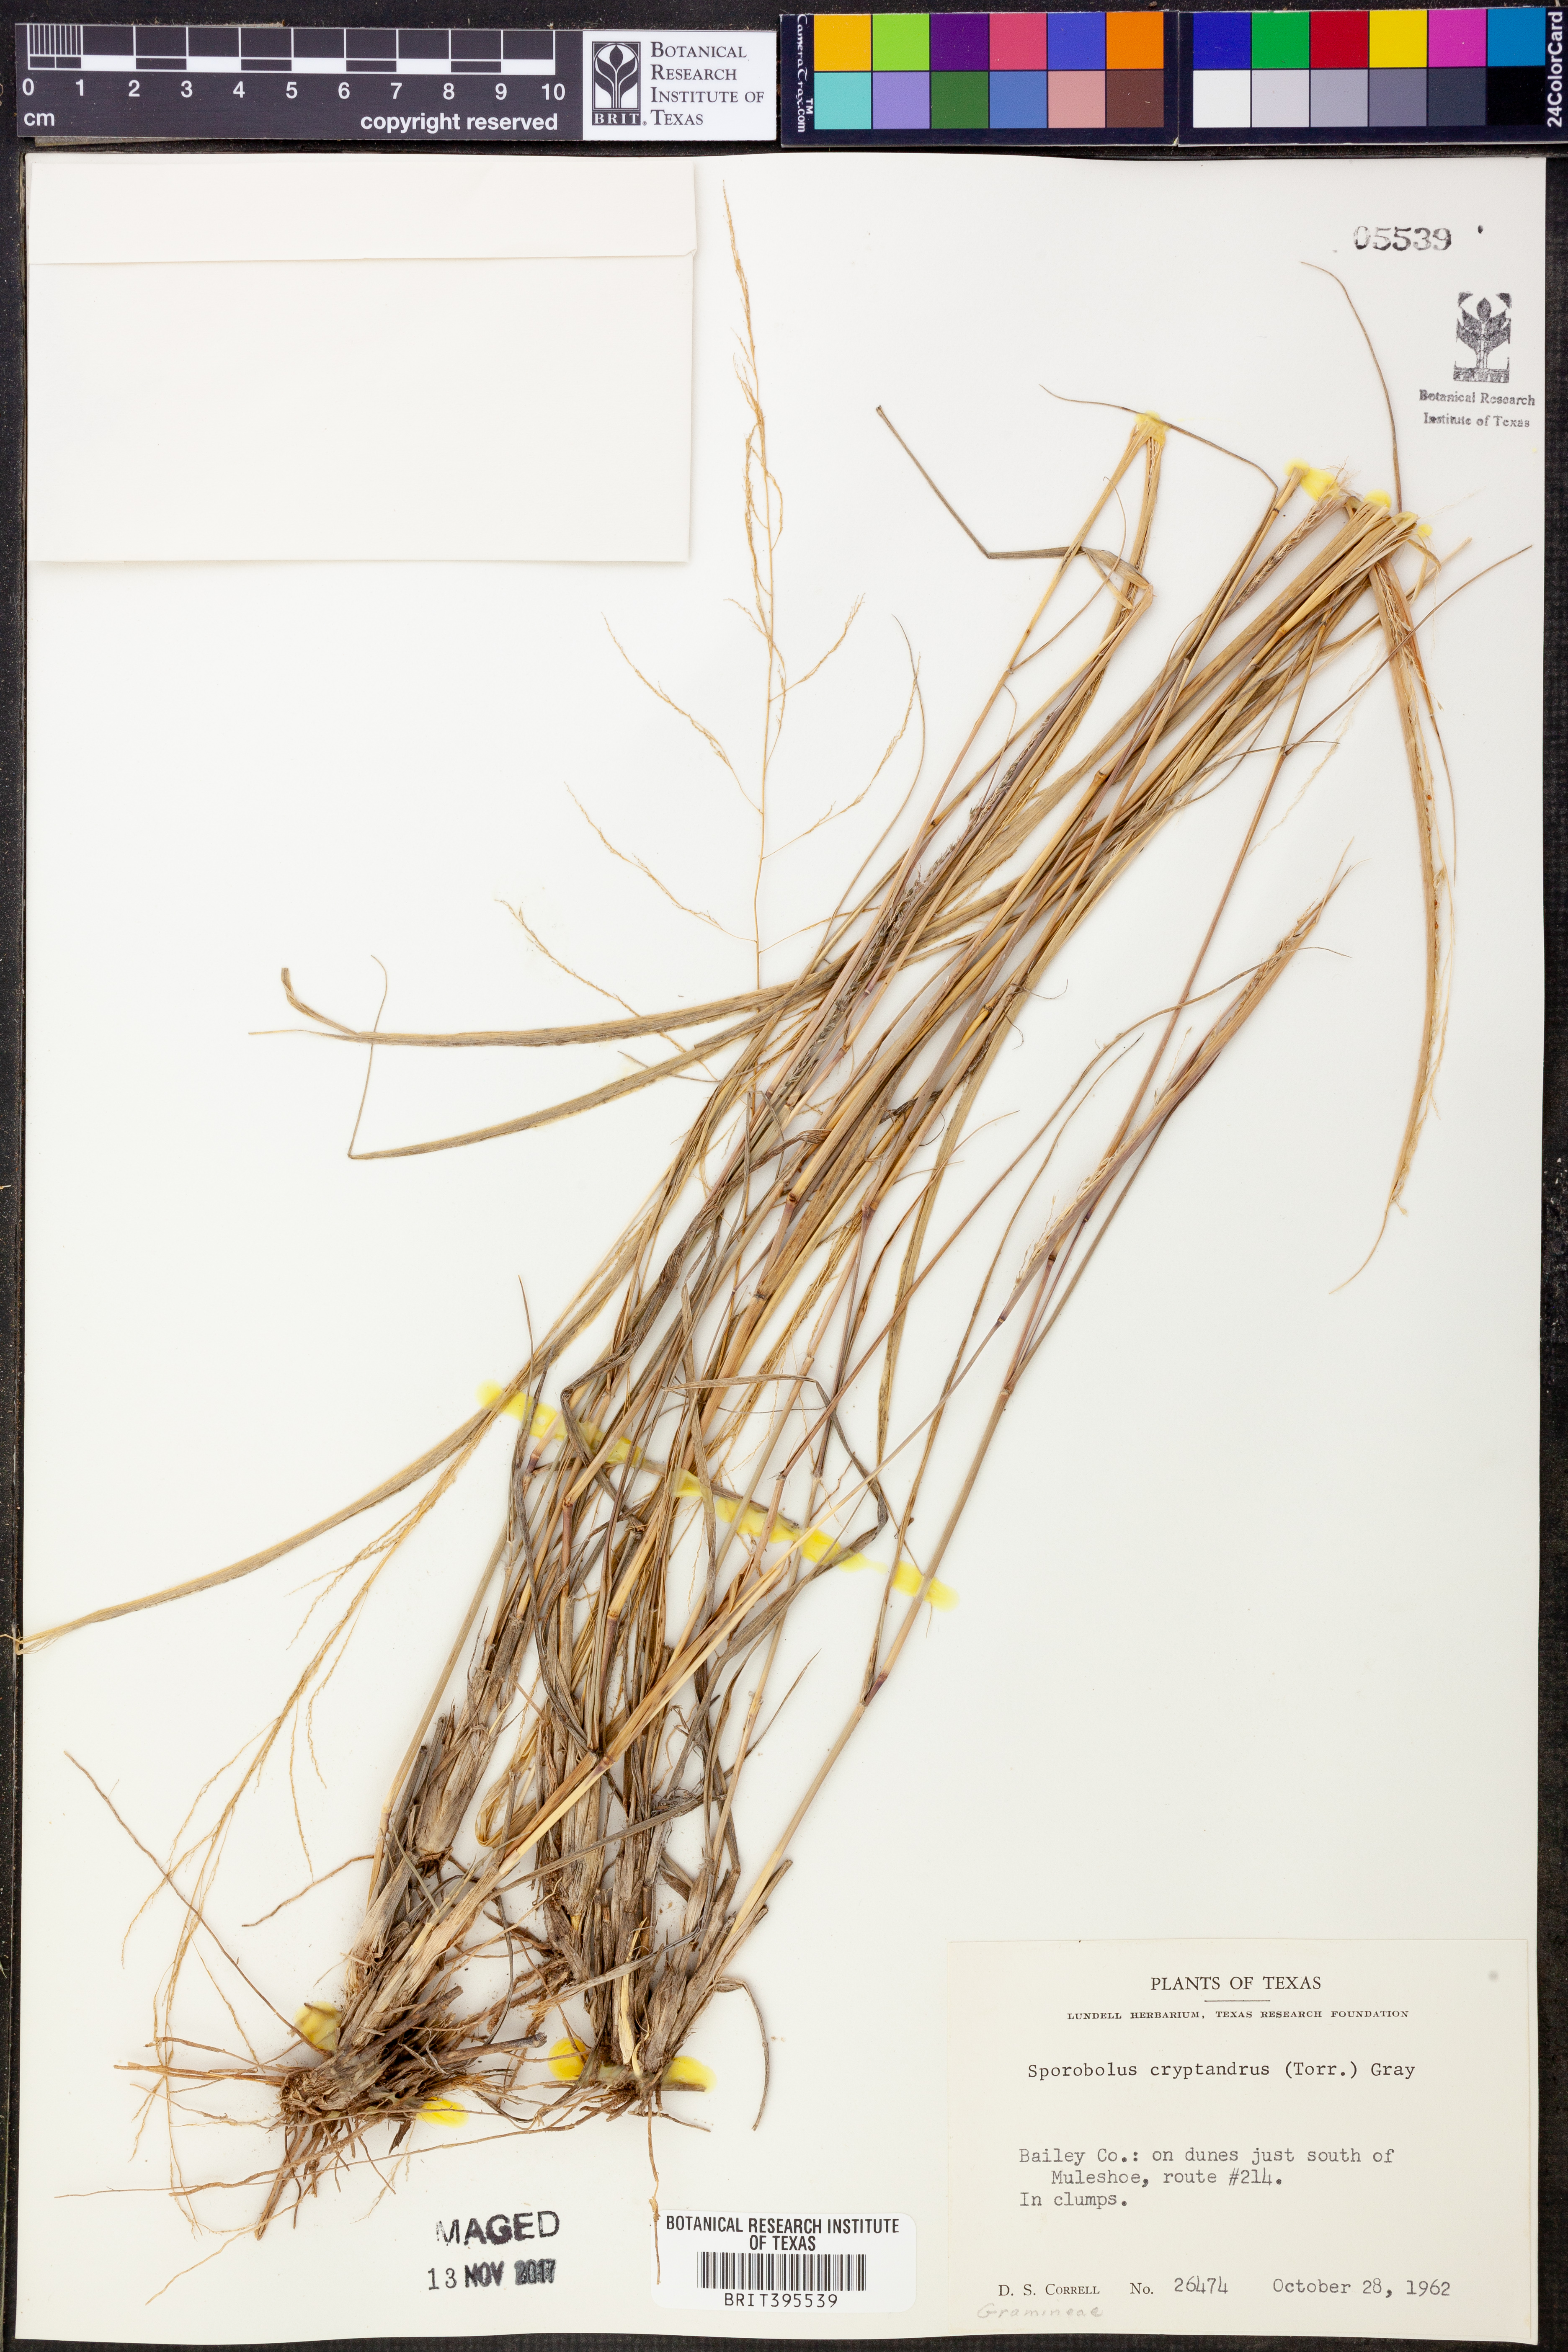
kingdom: Plantae
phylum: Tracheophyta
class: Liliopsida
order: Poales
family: Poaceae
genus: Sporobolus
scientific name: Sporobolus cryptandrus
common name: Sand dropseed
